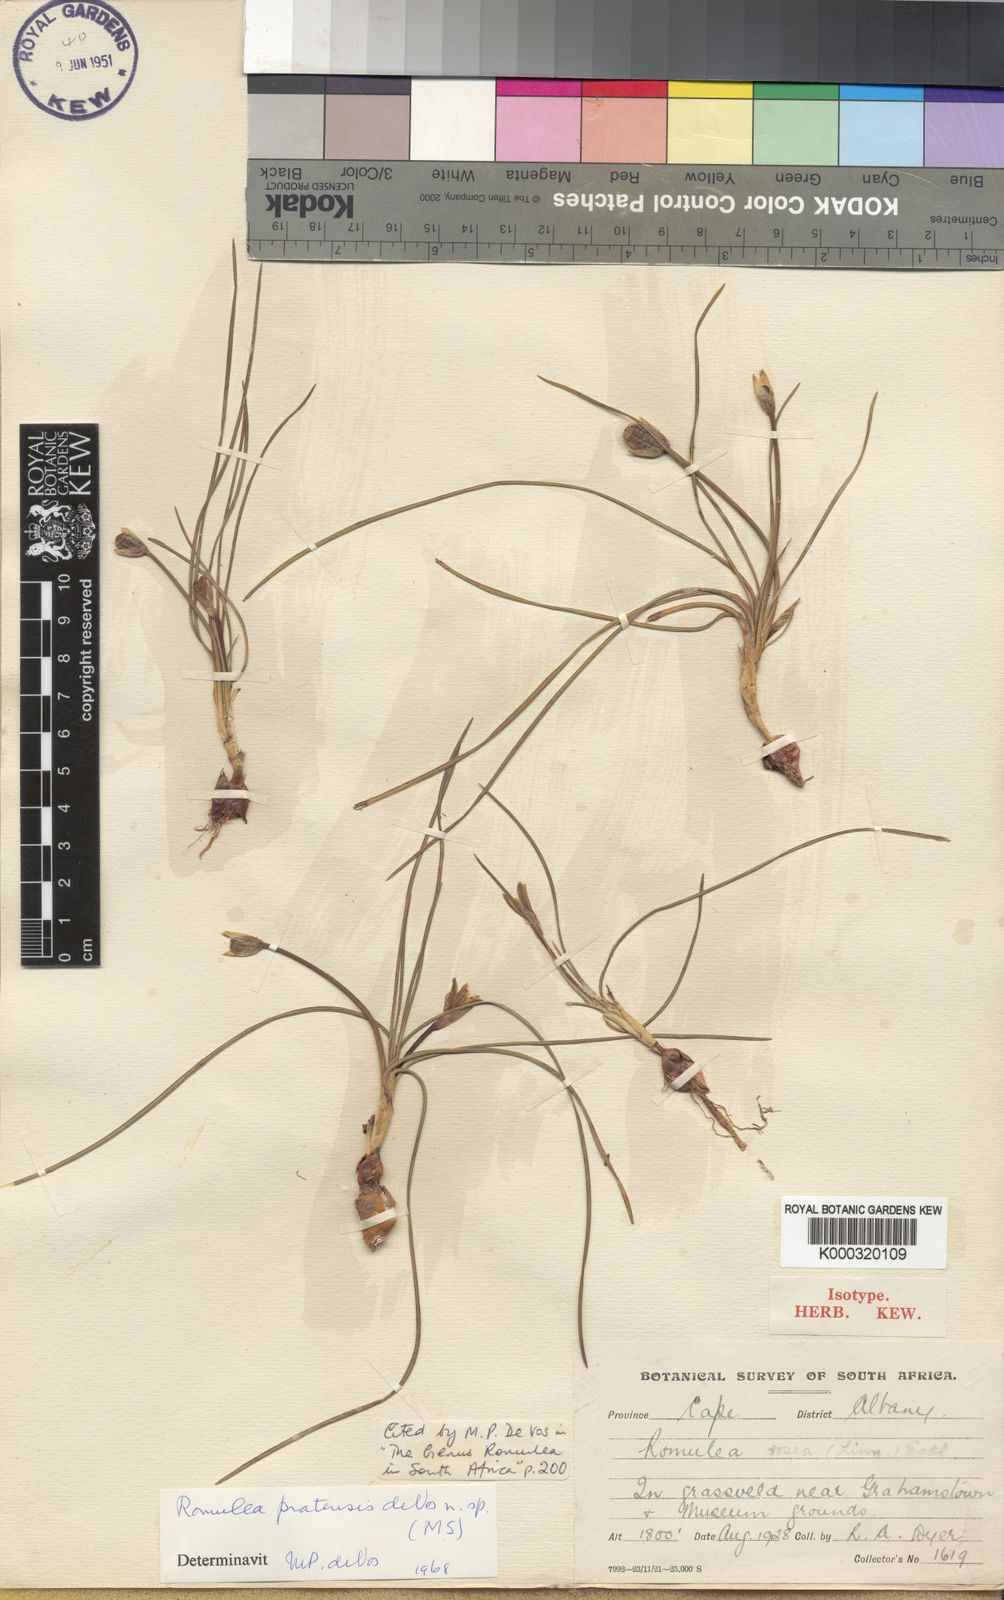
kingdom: Plantae
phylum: Tracheophyta
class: Liliopsida
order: Asparagales
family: Iridaceae
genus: Romulea
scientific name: Romulea pratensis
